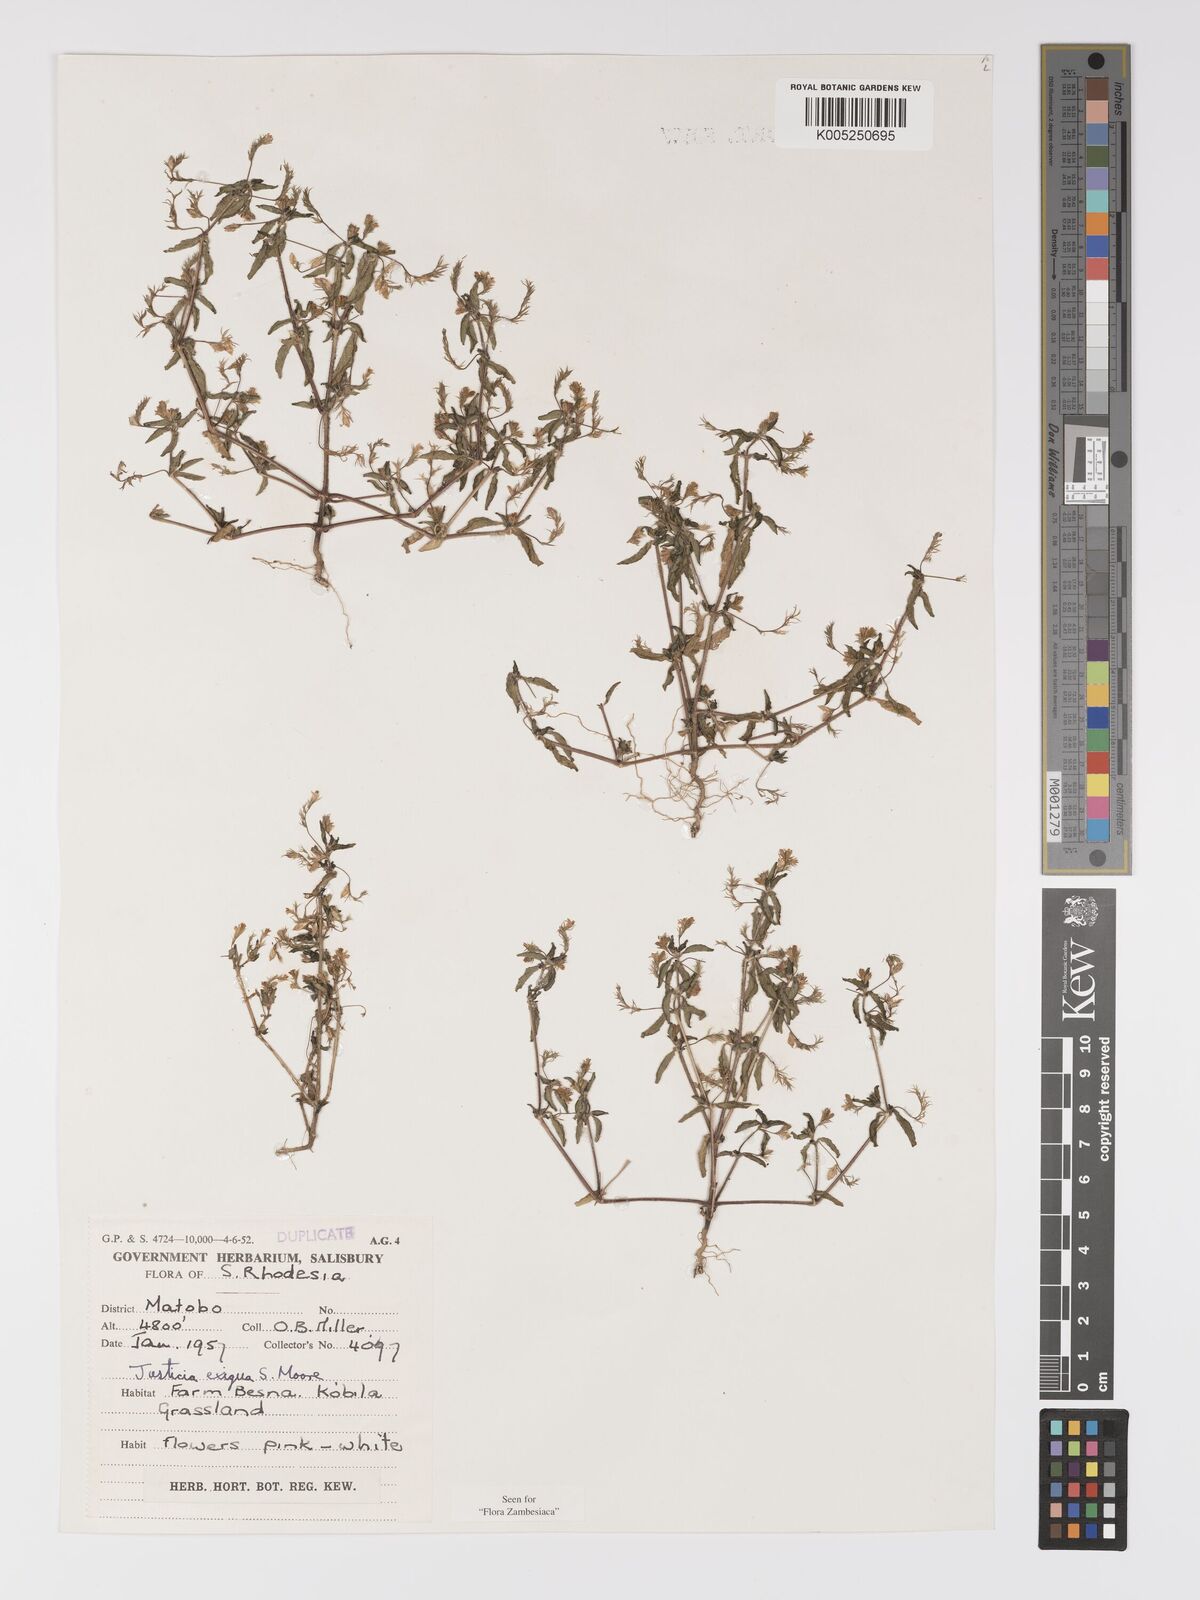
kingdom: Plantae
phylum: Tracheophyta
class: Magnoliopsida
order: Lamiales
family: Acanthaceae
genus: Justicia
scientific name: Justicia exigua
